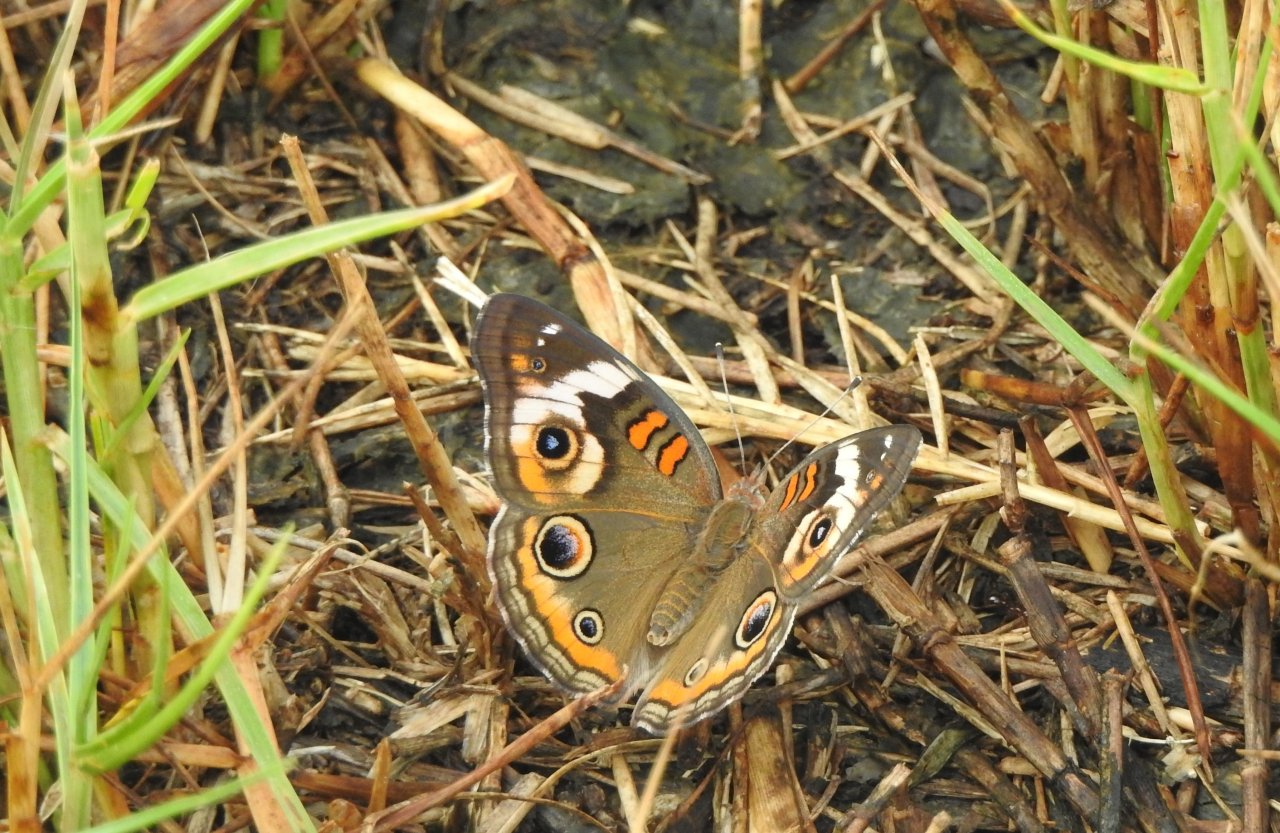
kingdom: Animalia
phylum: Arthropoda
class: Insecta
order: Lepidoptera
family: Nymphalidae
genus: Junonia
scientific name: Junonia coenia
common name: Common Buckeye
